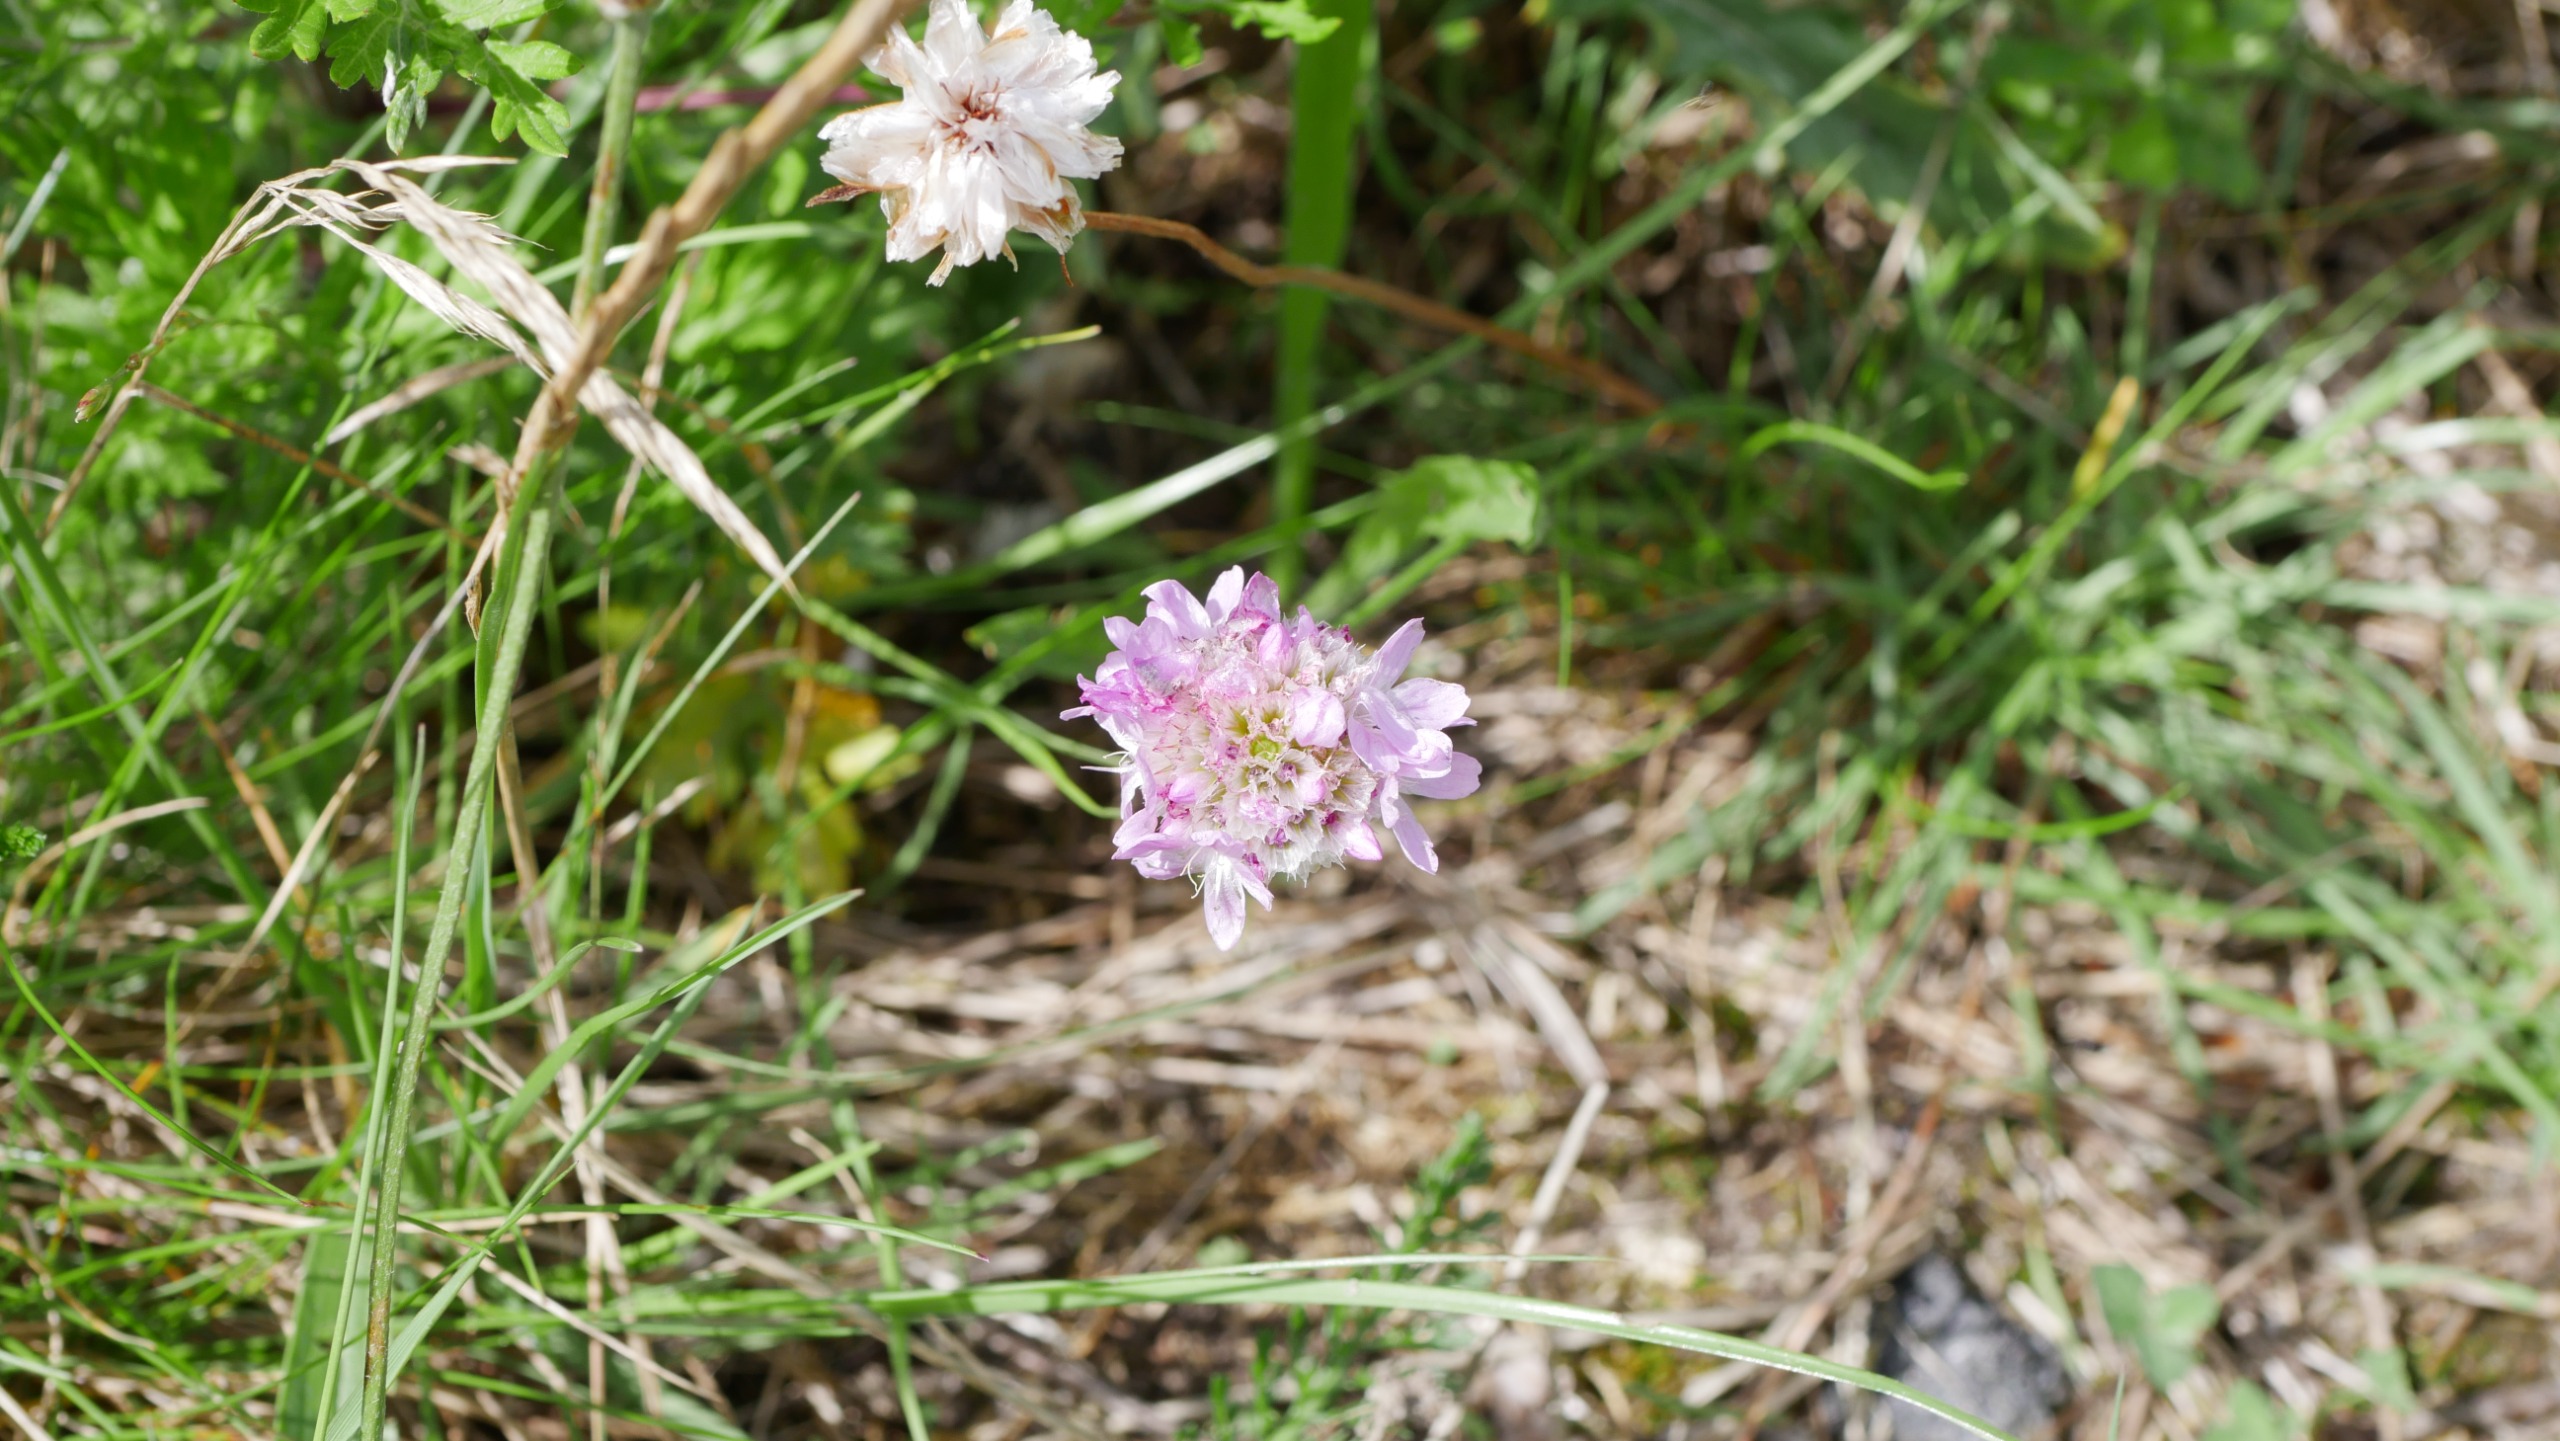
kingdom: Plantae
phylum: Tracheophyta
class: Magnoliopsida
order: Caryophyllales
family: Plumbaginaceae
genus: Armeria
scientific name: Armeria maritima
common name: Engelskgræs
